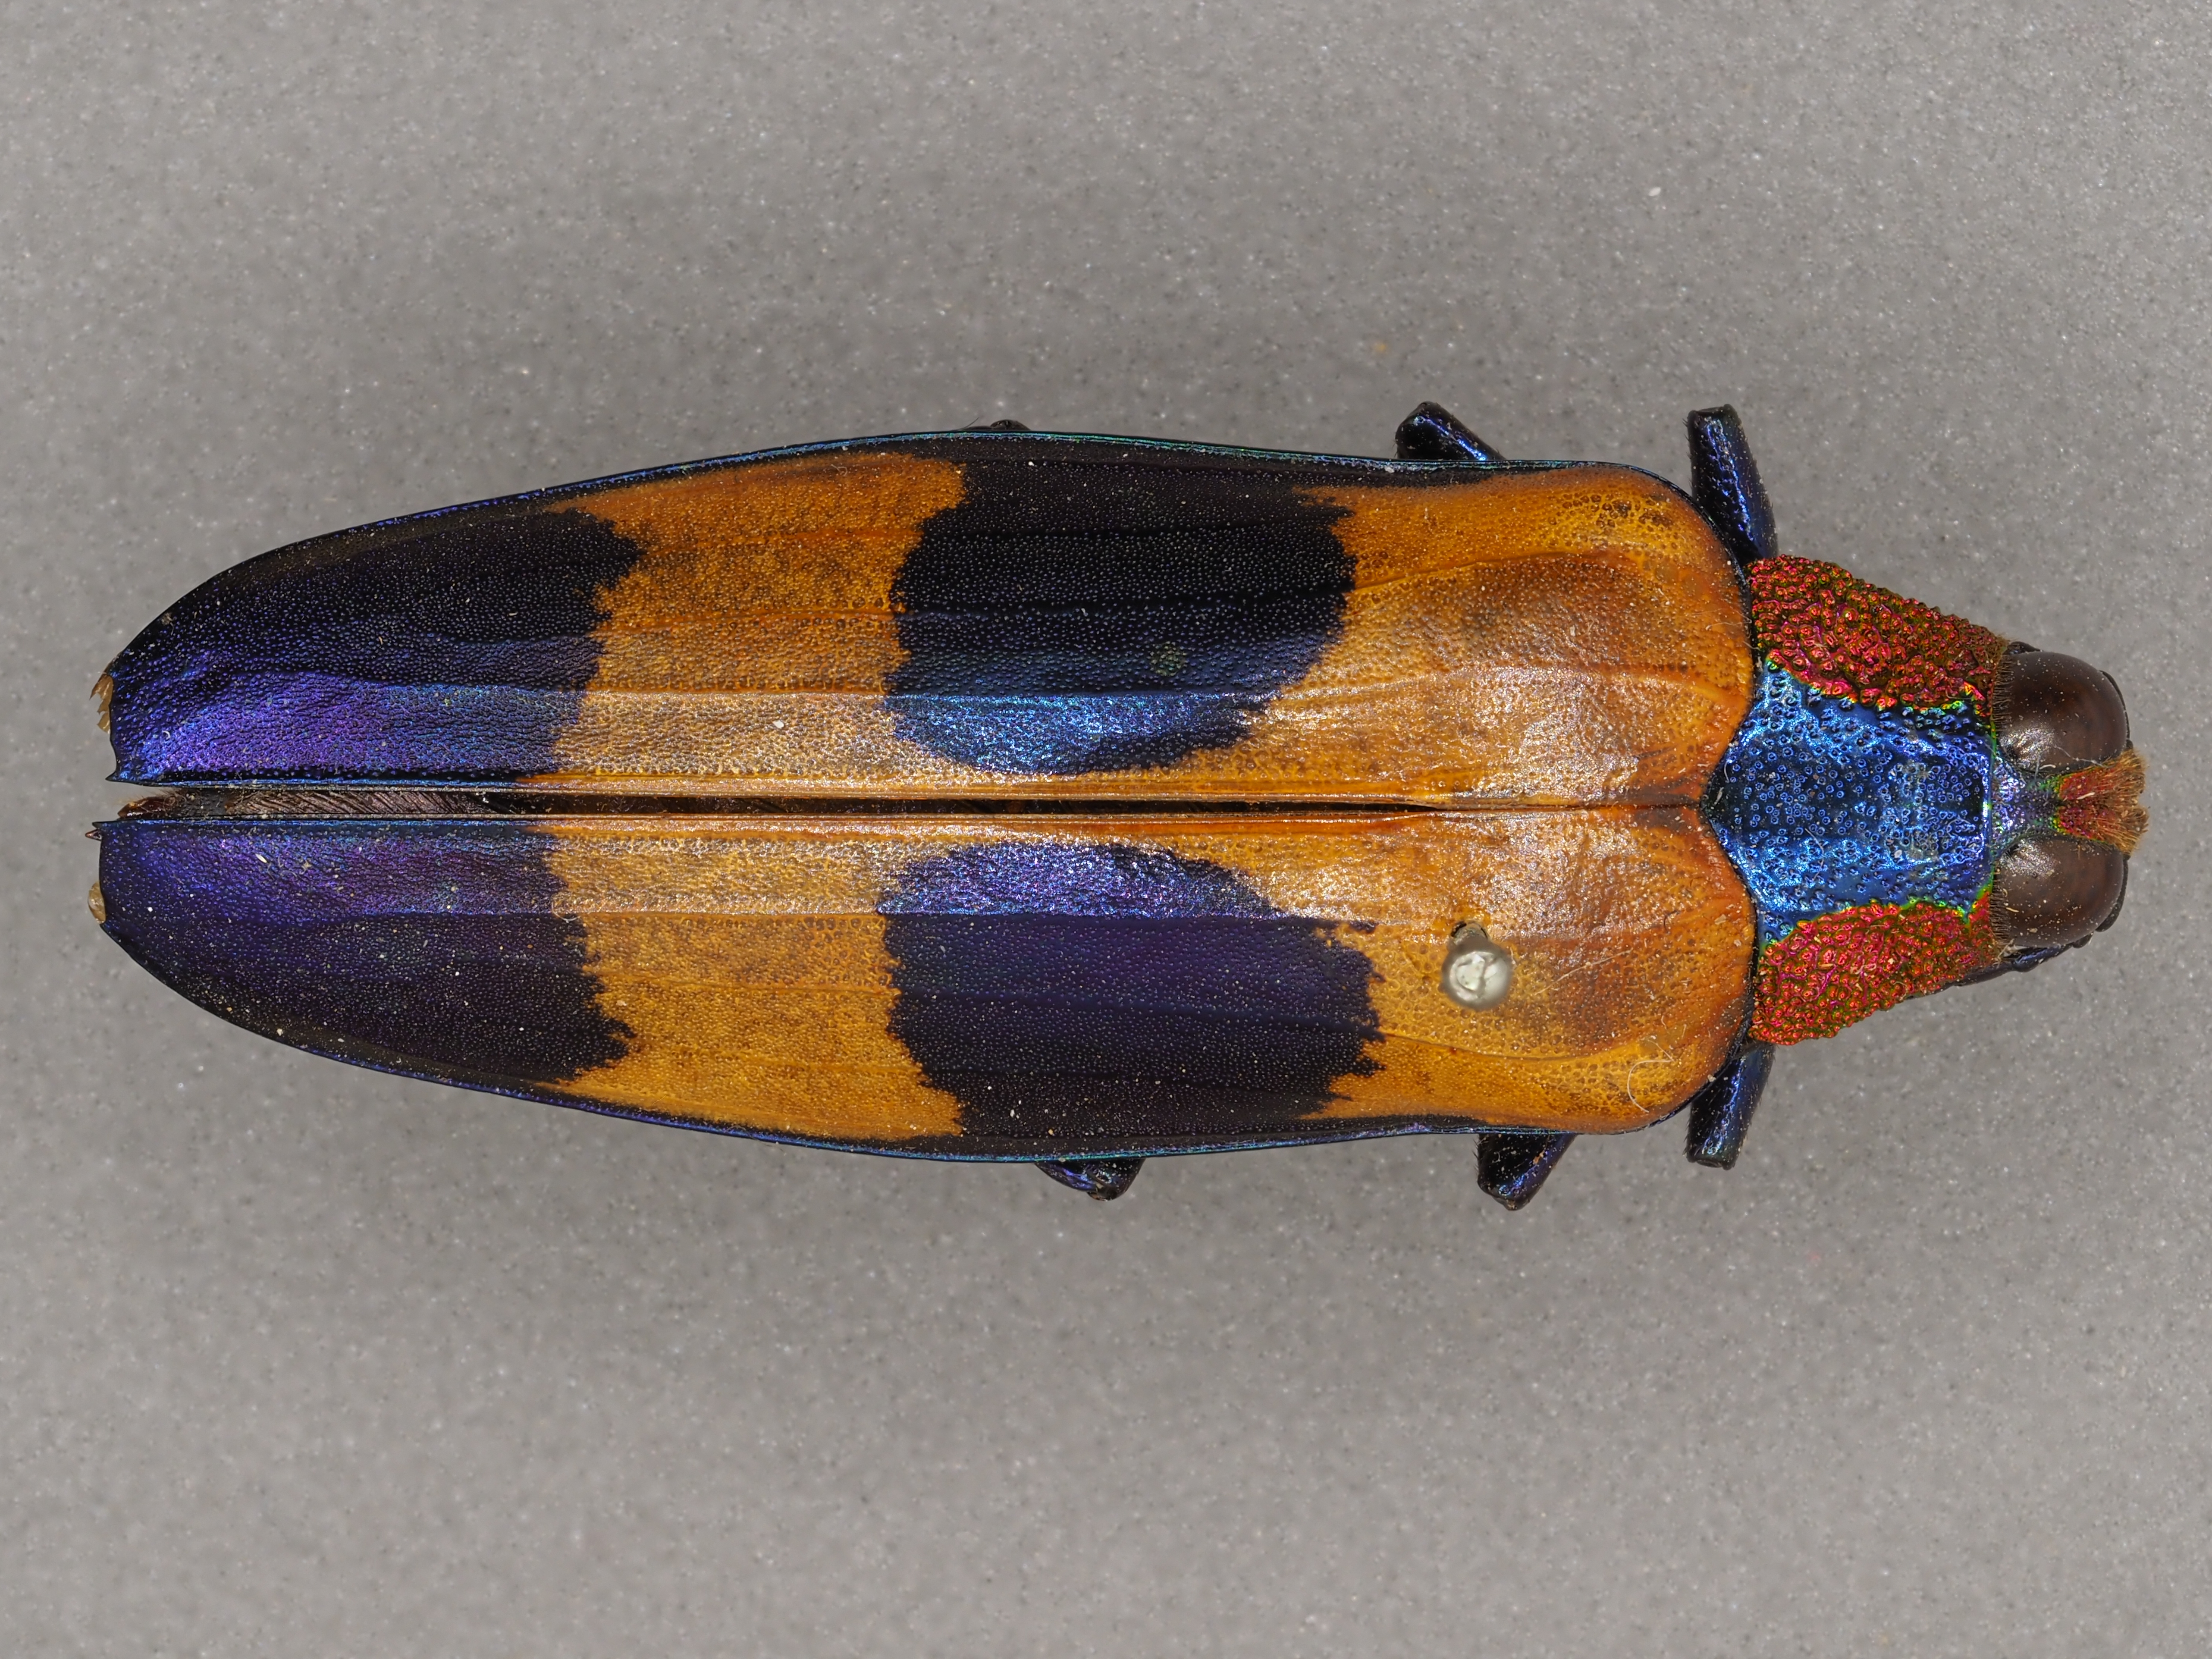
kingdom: Animalia
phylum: Arthropoda
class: Insecta
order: Coleoptera
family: Buprestidae
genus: Chrysochroa
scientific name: Chrysochroa mirabilis
